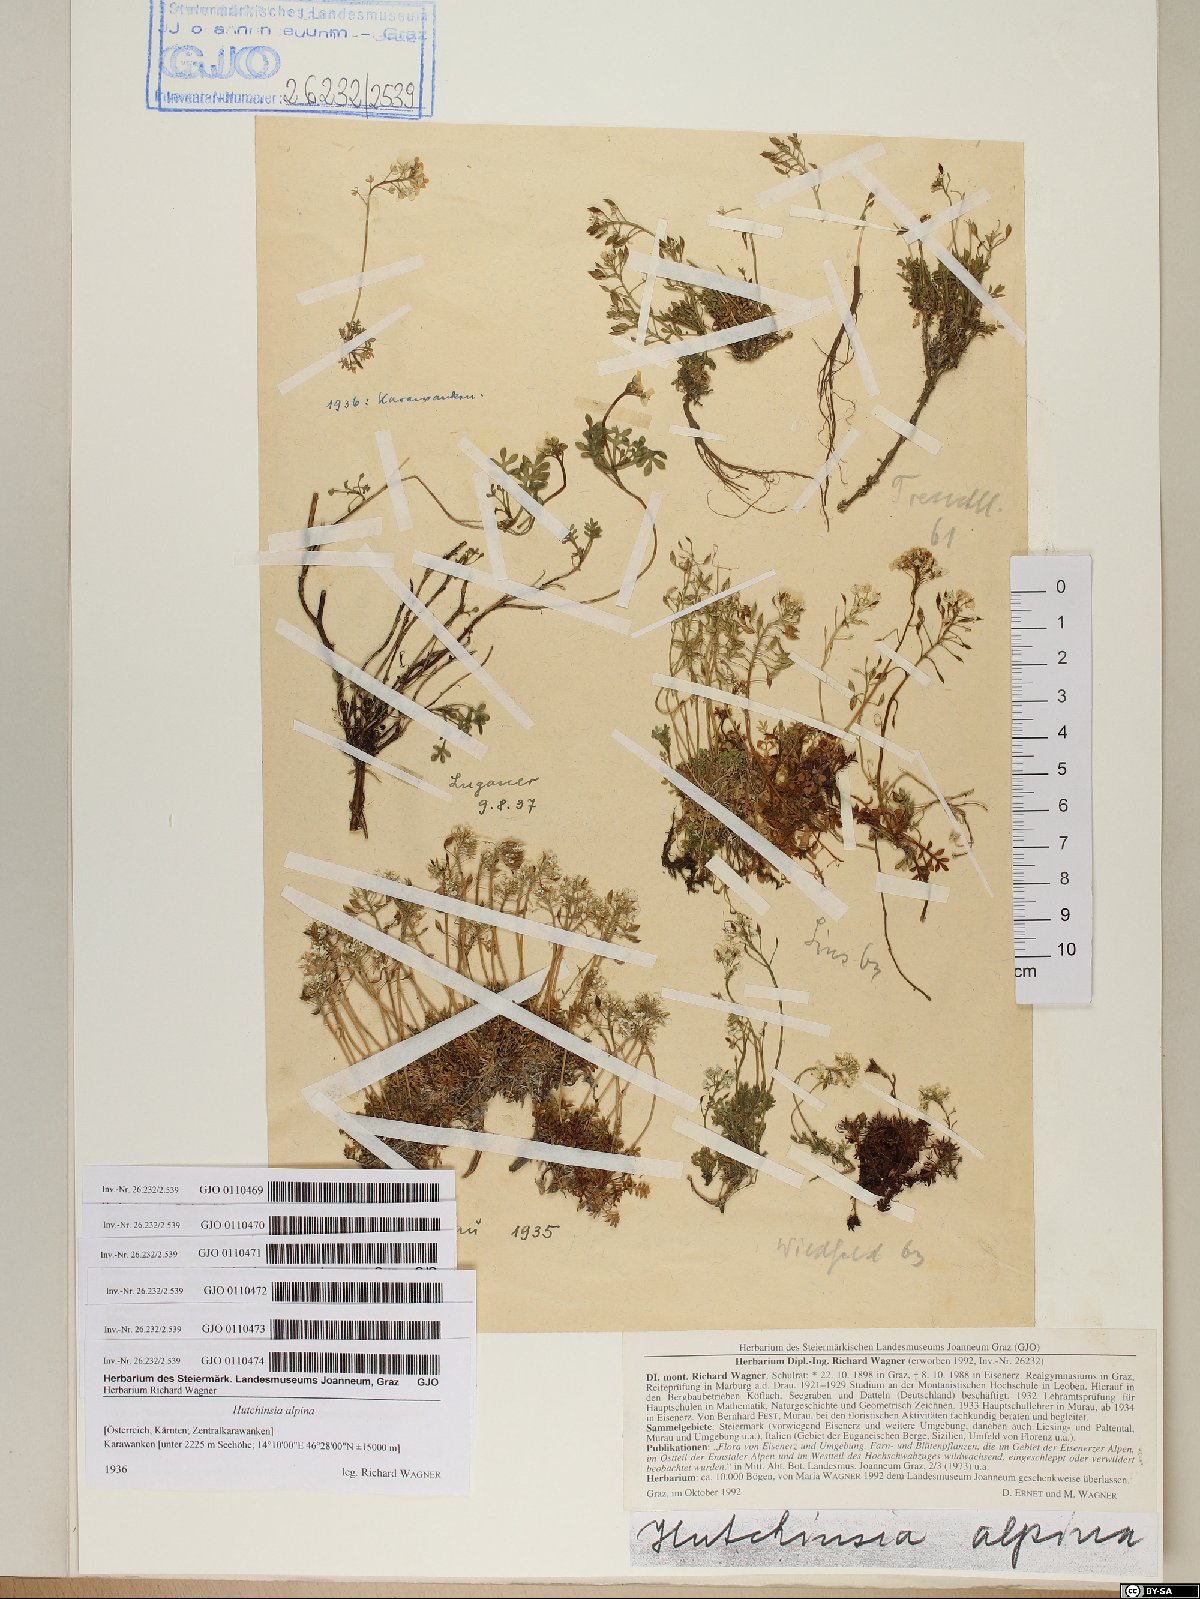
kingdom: Plantae
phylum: Tracheophyta
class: Magnoliopsida
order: Brassicales
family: Brassicaceae
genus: Hornungia
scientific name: Hornungia alpina
